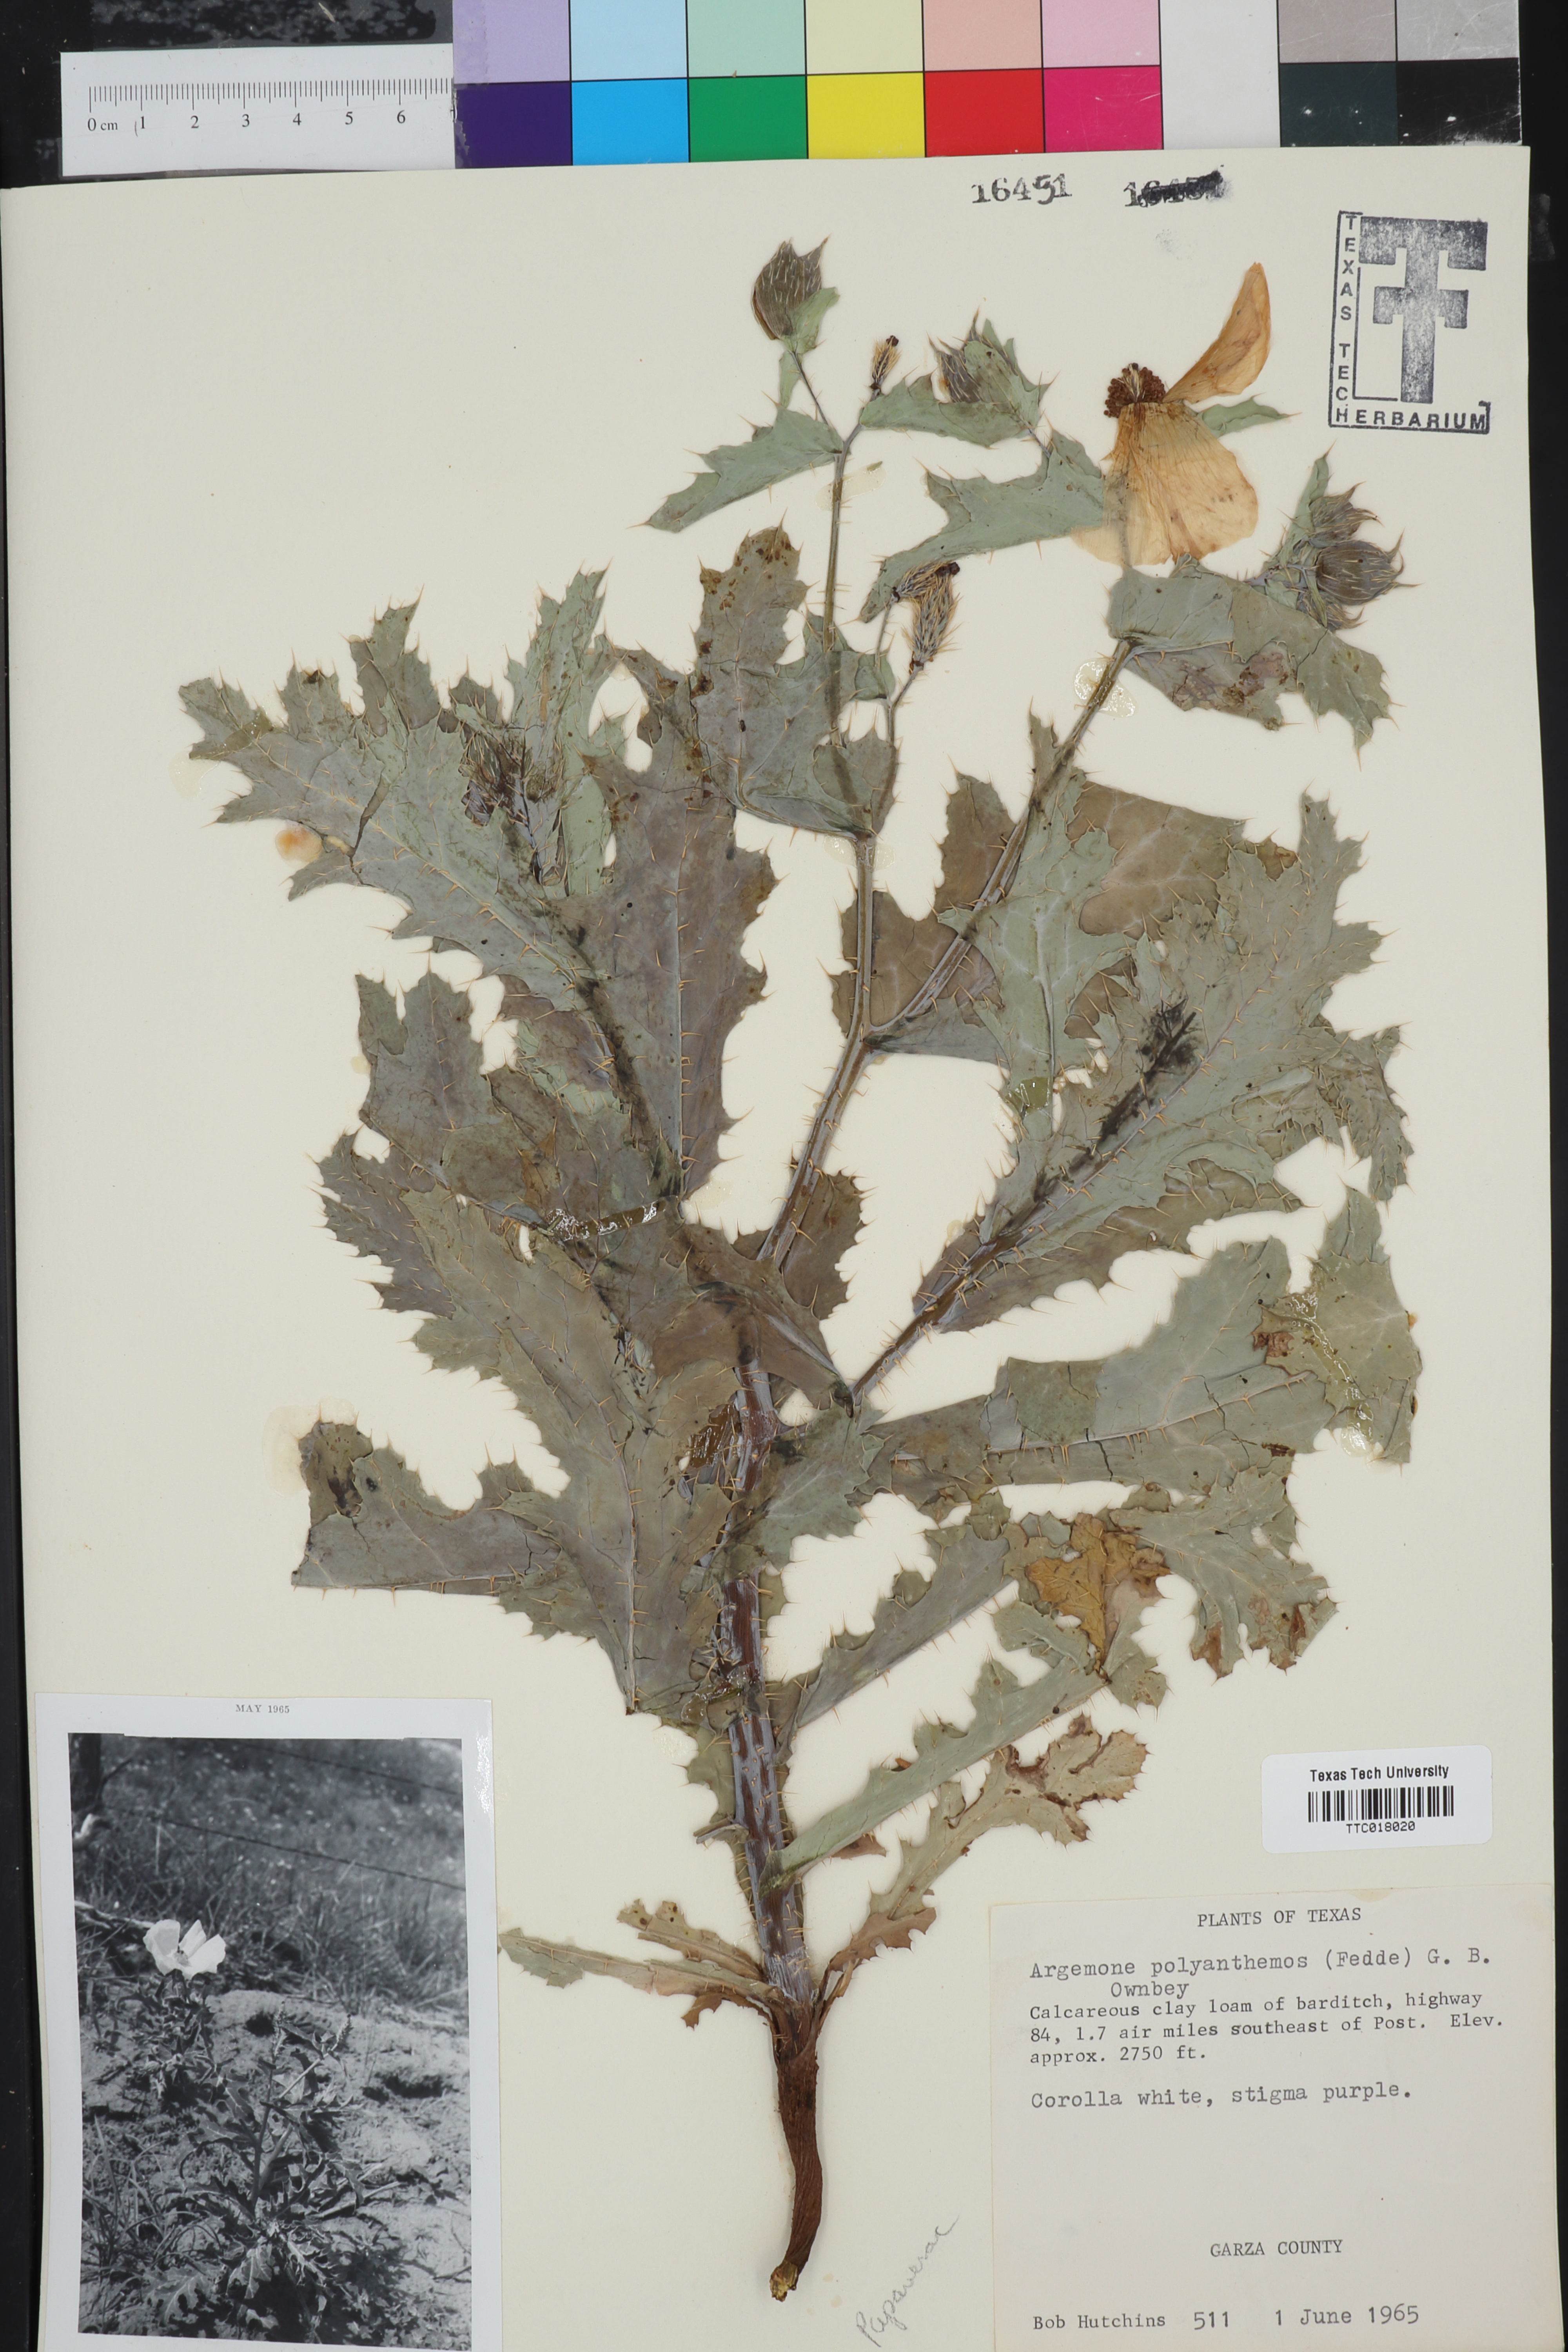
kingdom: Plantae
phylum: Tracheophyta
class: Magnoliopsida
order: Ranunculales
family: Papaveraceae
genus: Argemone
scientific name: Argemone polyanthemos
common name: Plains prickly-poppy
